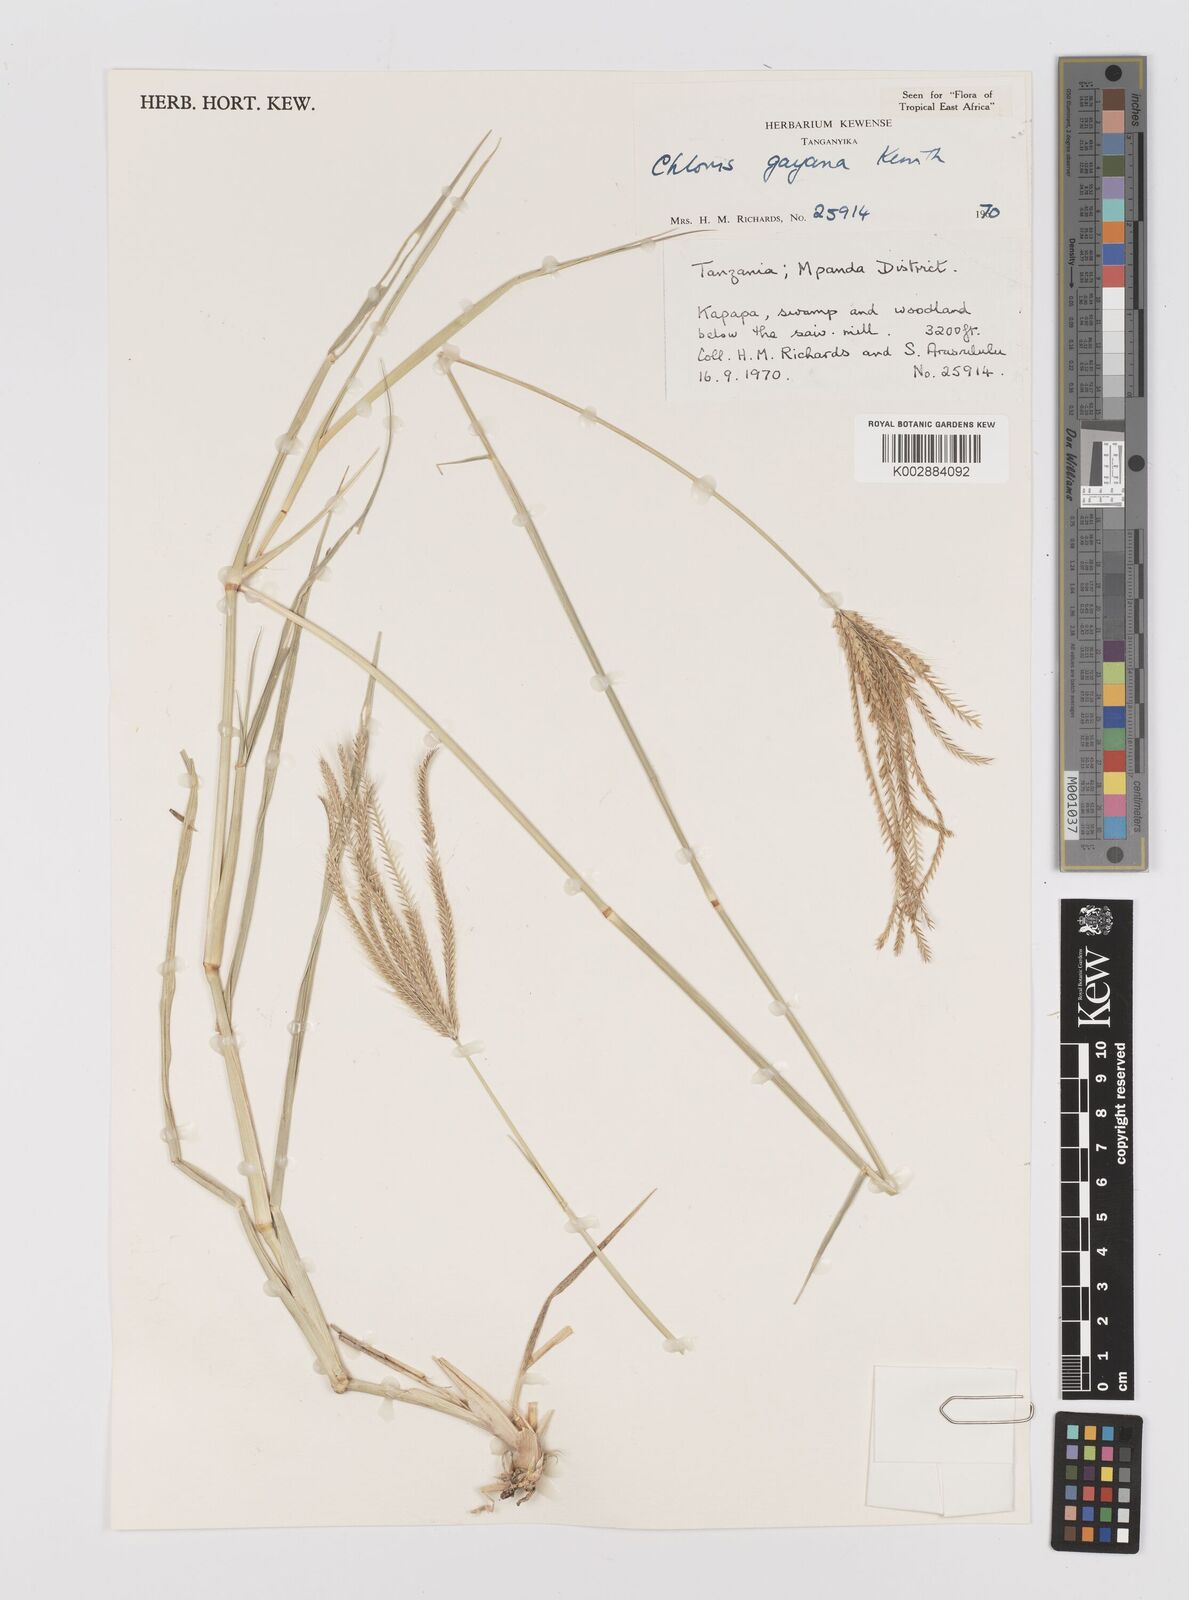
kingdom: Plantae
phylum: Tracheophyta
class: Liliopsida
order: Poales
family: Poaceae
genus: Chloris
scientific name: Chloris gayana
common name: Rhodes grass
